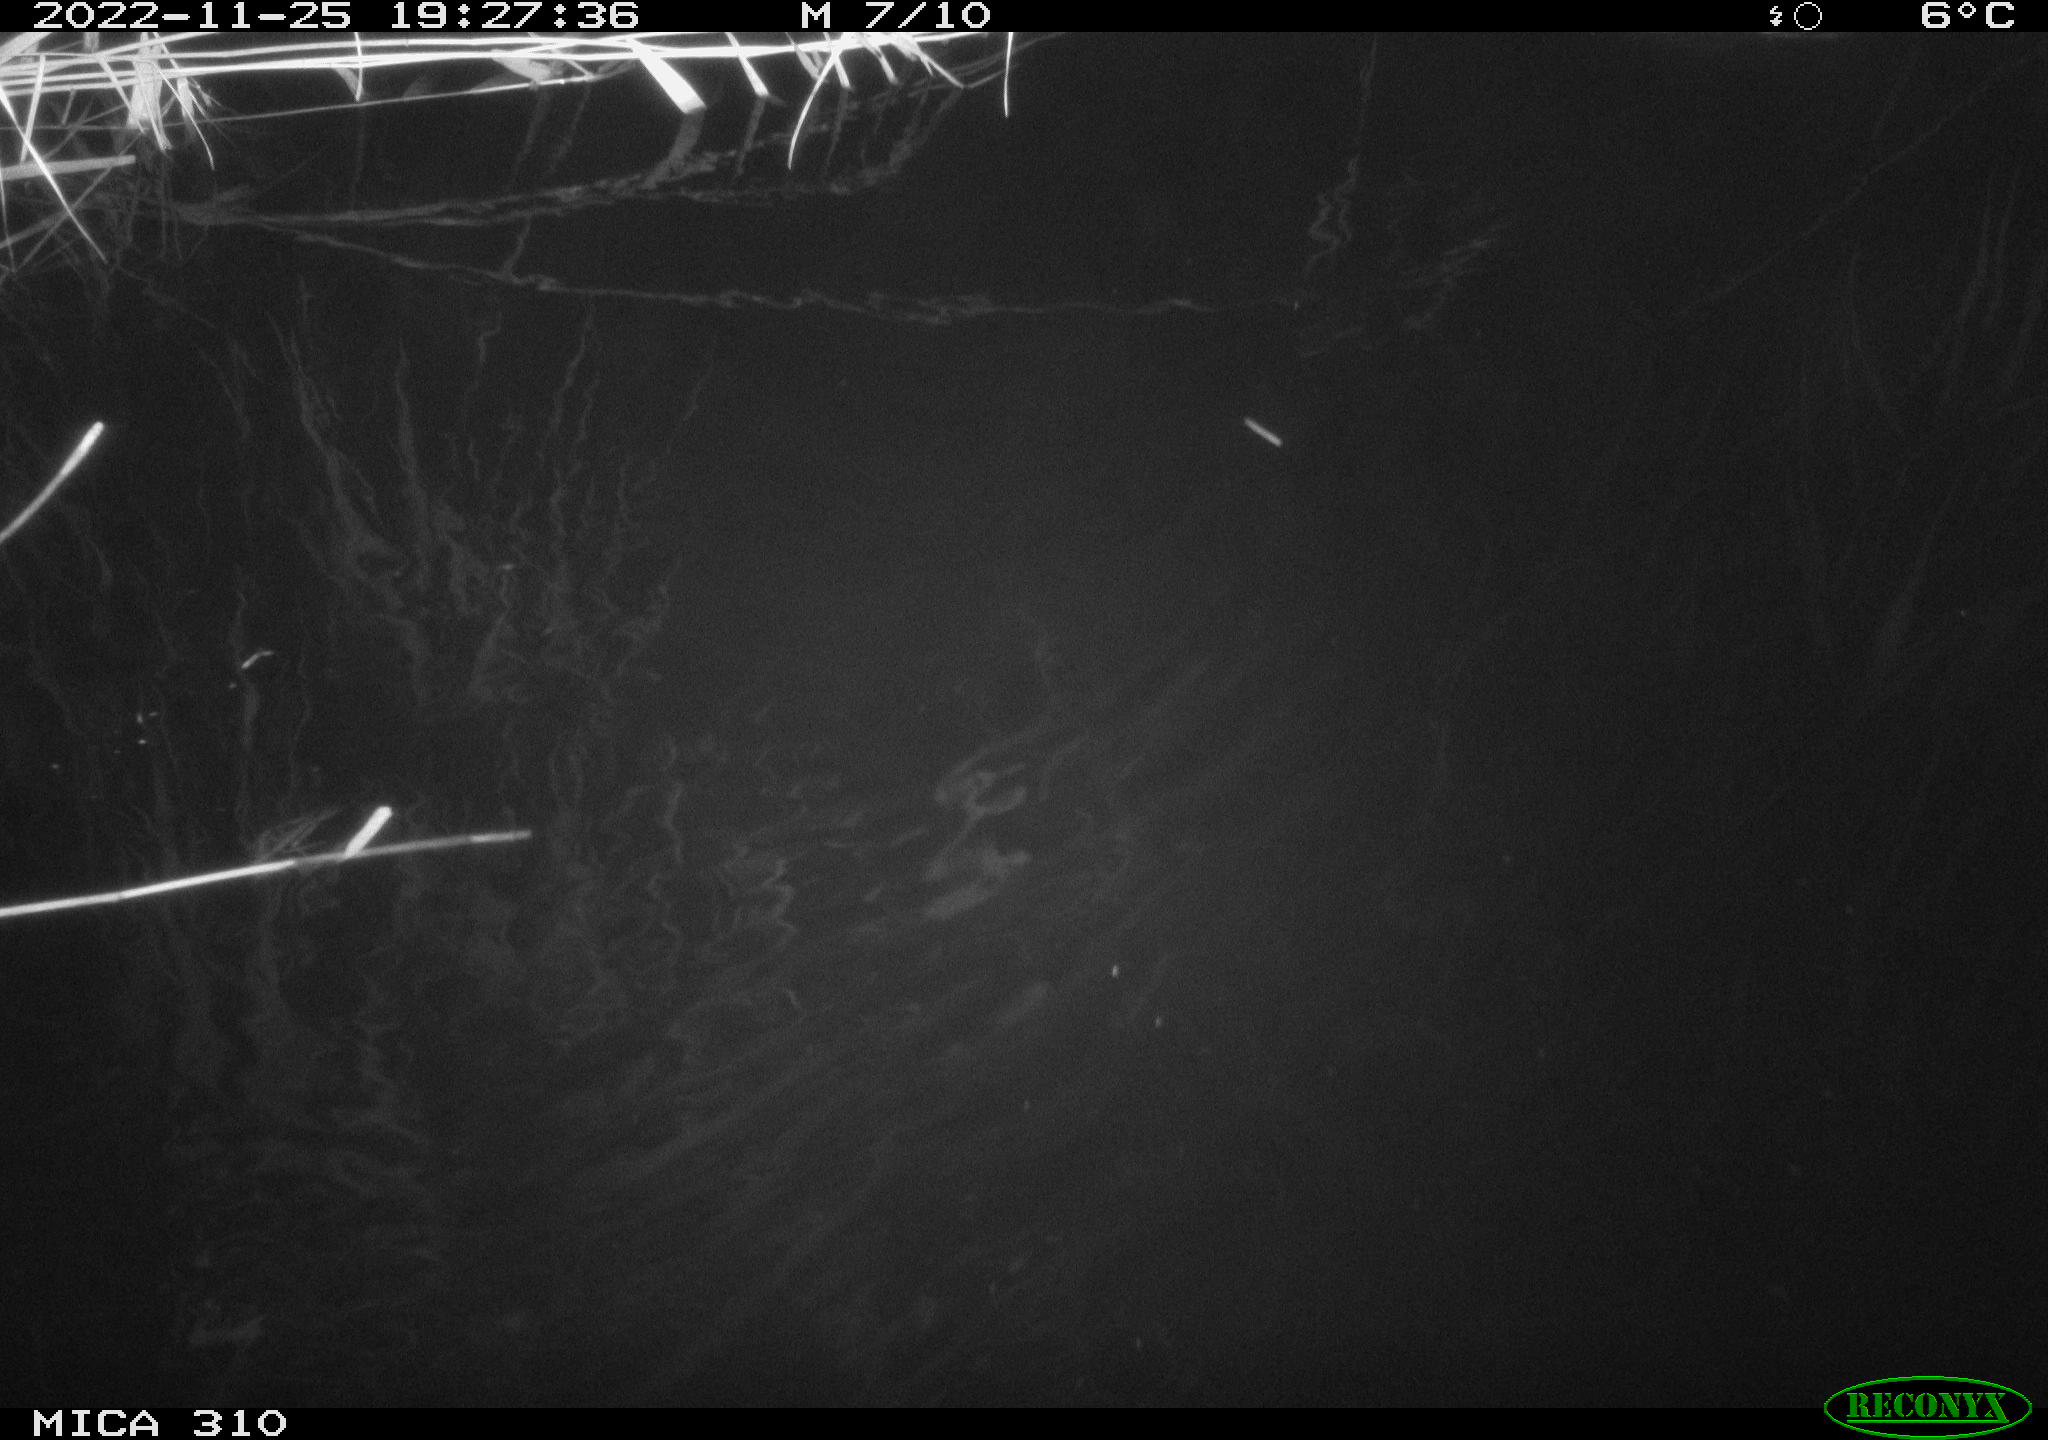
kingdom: Animalia
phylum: Chordata
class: Mammalia
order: Rodentia
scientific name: Rodentia
